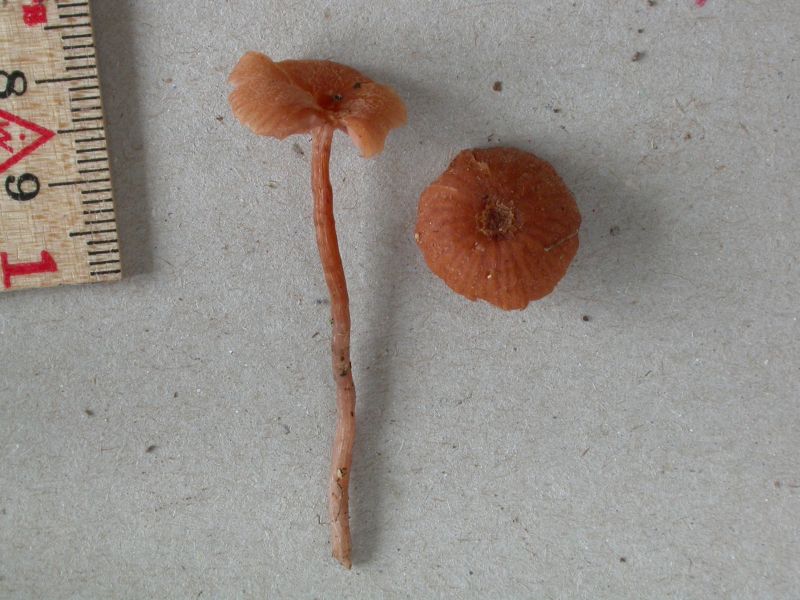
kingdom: Fungi
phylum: Basidiomycota
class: Agaricomycetes
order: Agaricales
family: Hydnangiaceae
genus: Laccaria
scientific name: Laccaria fraterna
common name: pilemose-ametysthat
